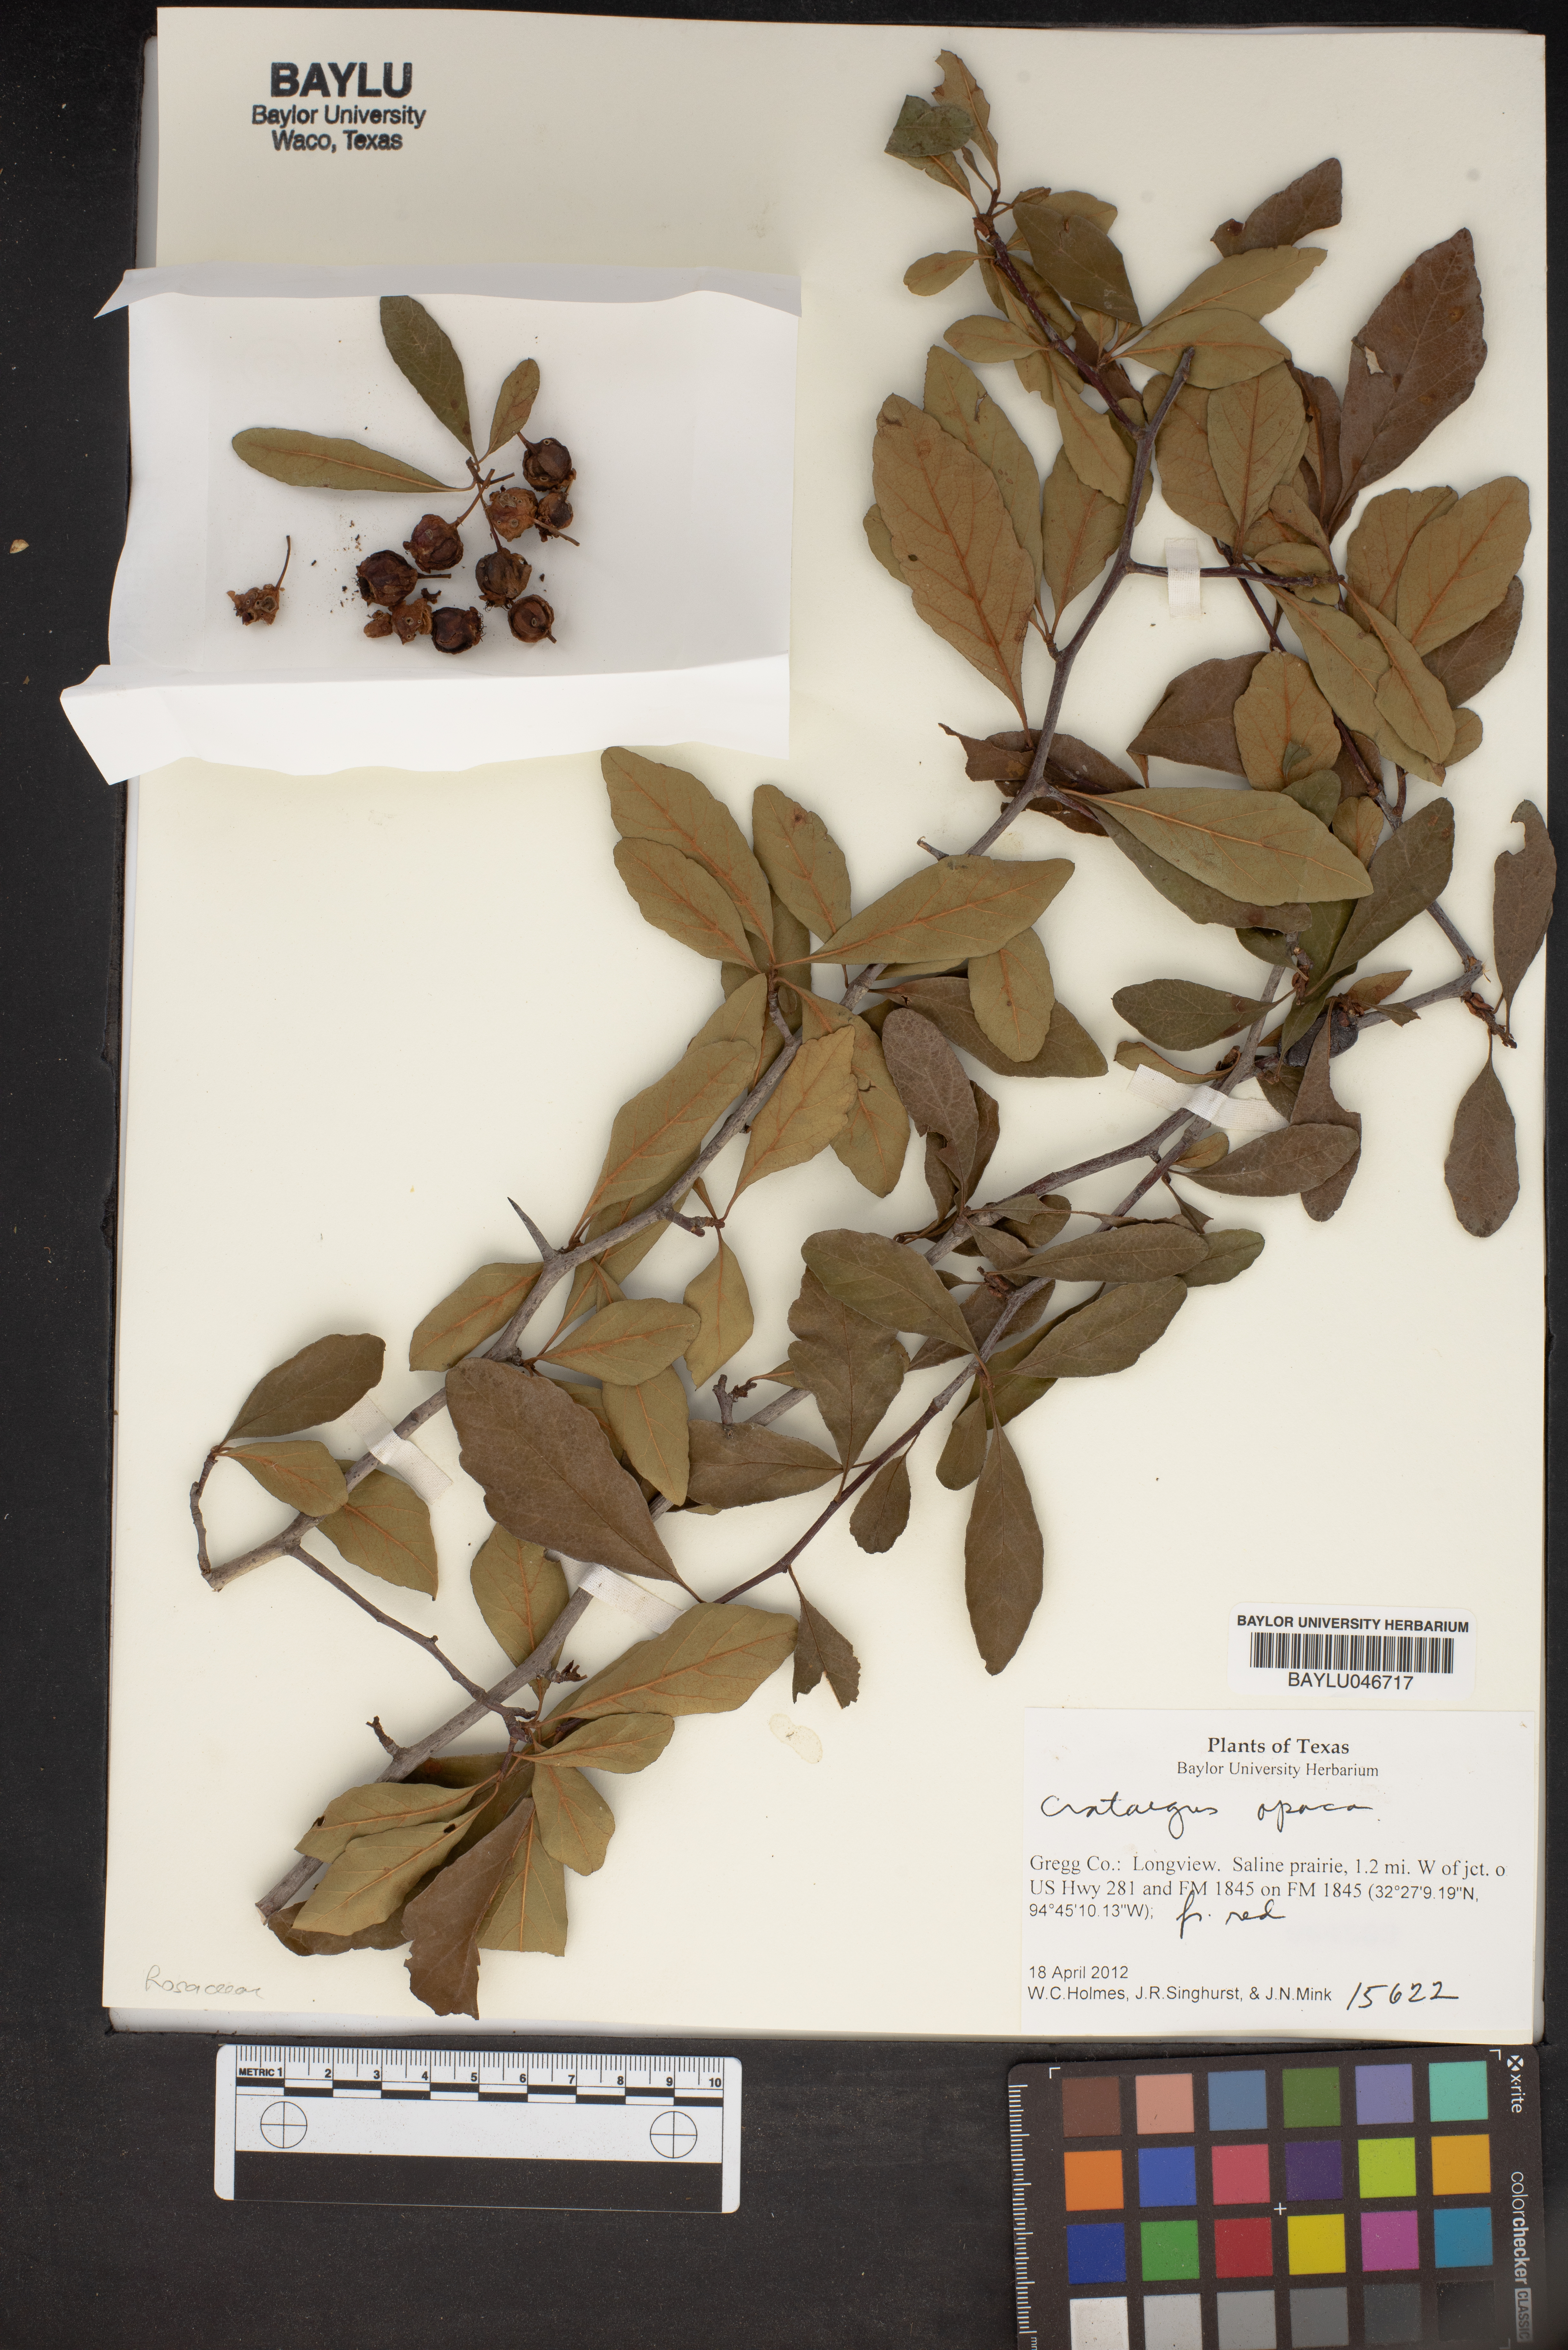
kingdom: Plantae
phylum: Tracheophyta
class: Magnoliopsida
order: Rosales
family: Rosaceae
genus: Crataegus
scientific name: Crataegus aprica
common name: Sunny hawthorn
